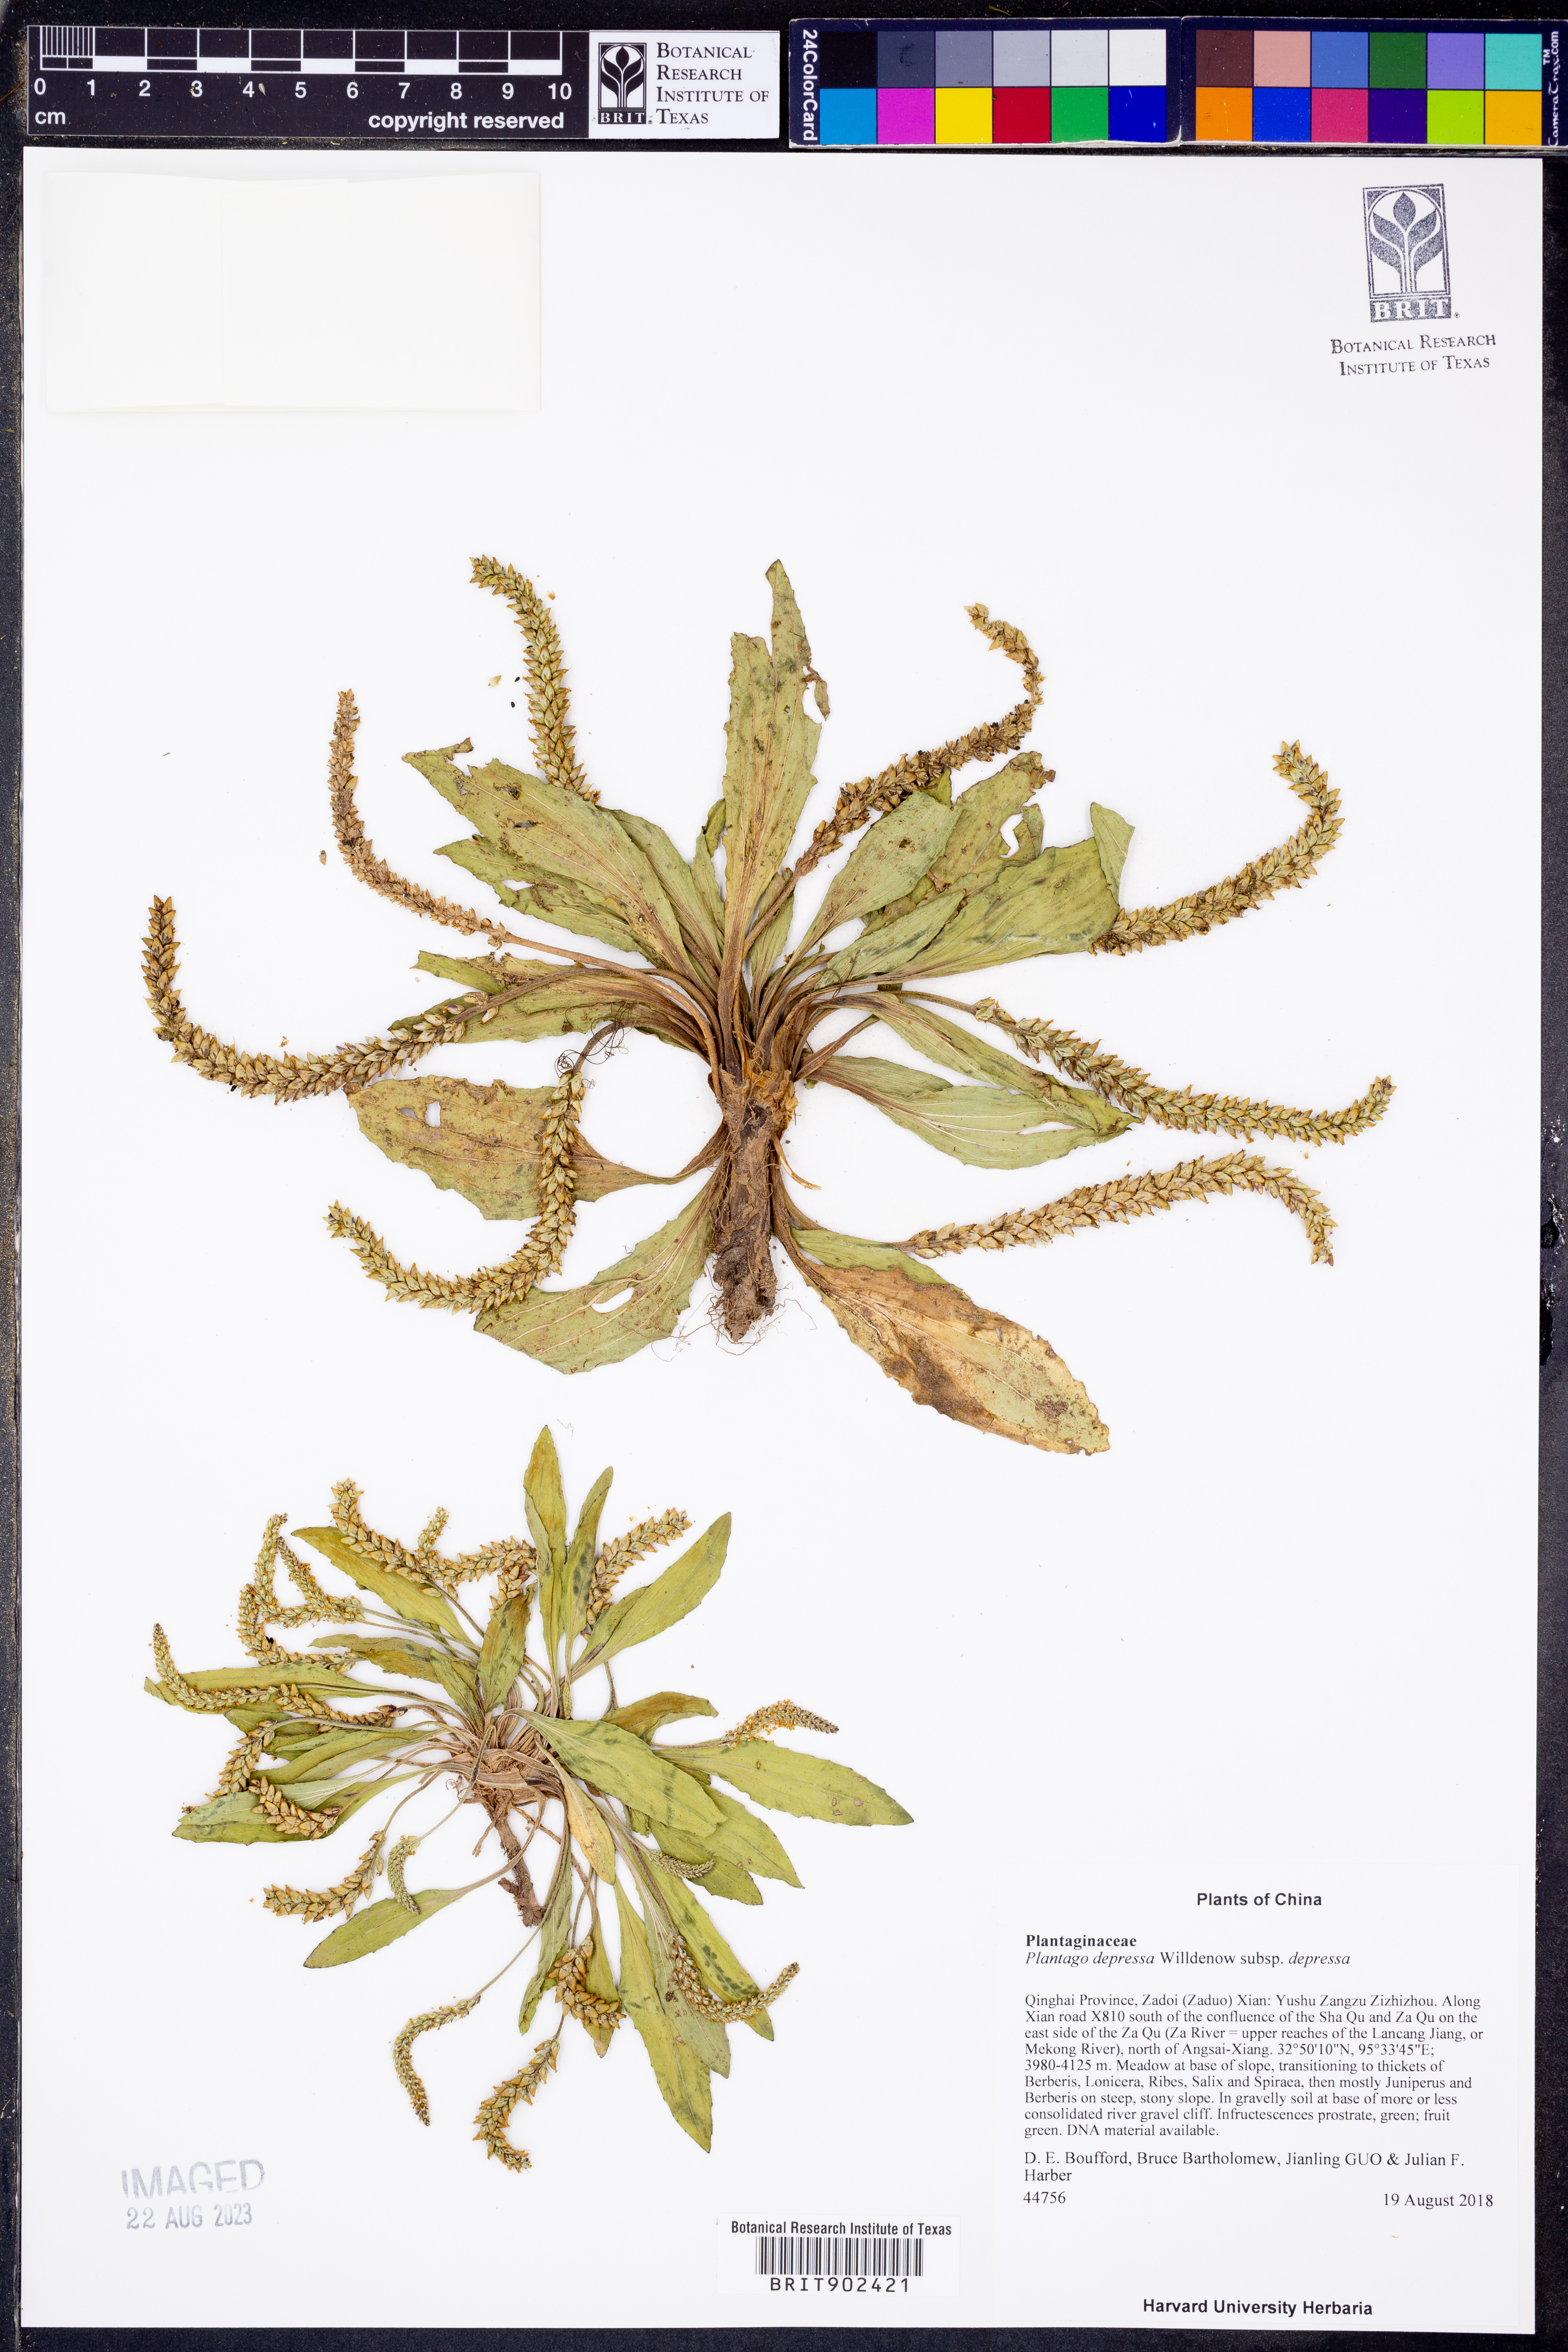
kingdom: Plantae
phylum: Tracheophyta
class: Magnoliopsida
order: Lamiales
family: Plantaginaceae
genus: Plantago
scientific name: Plantago depressa
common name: Depressed plantain
